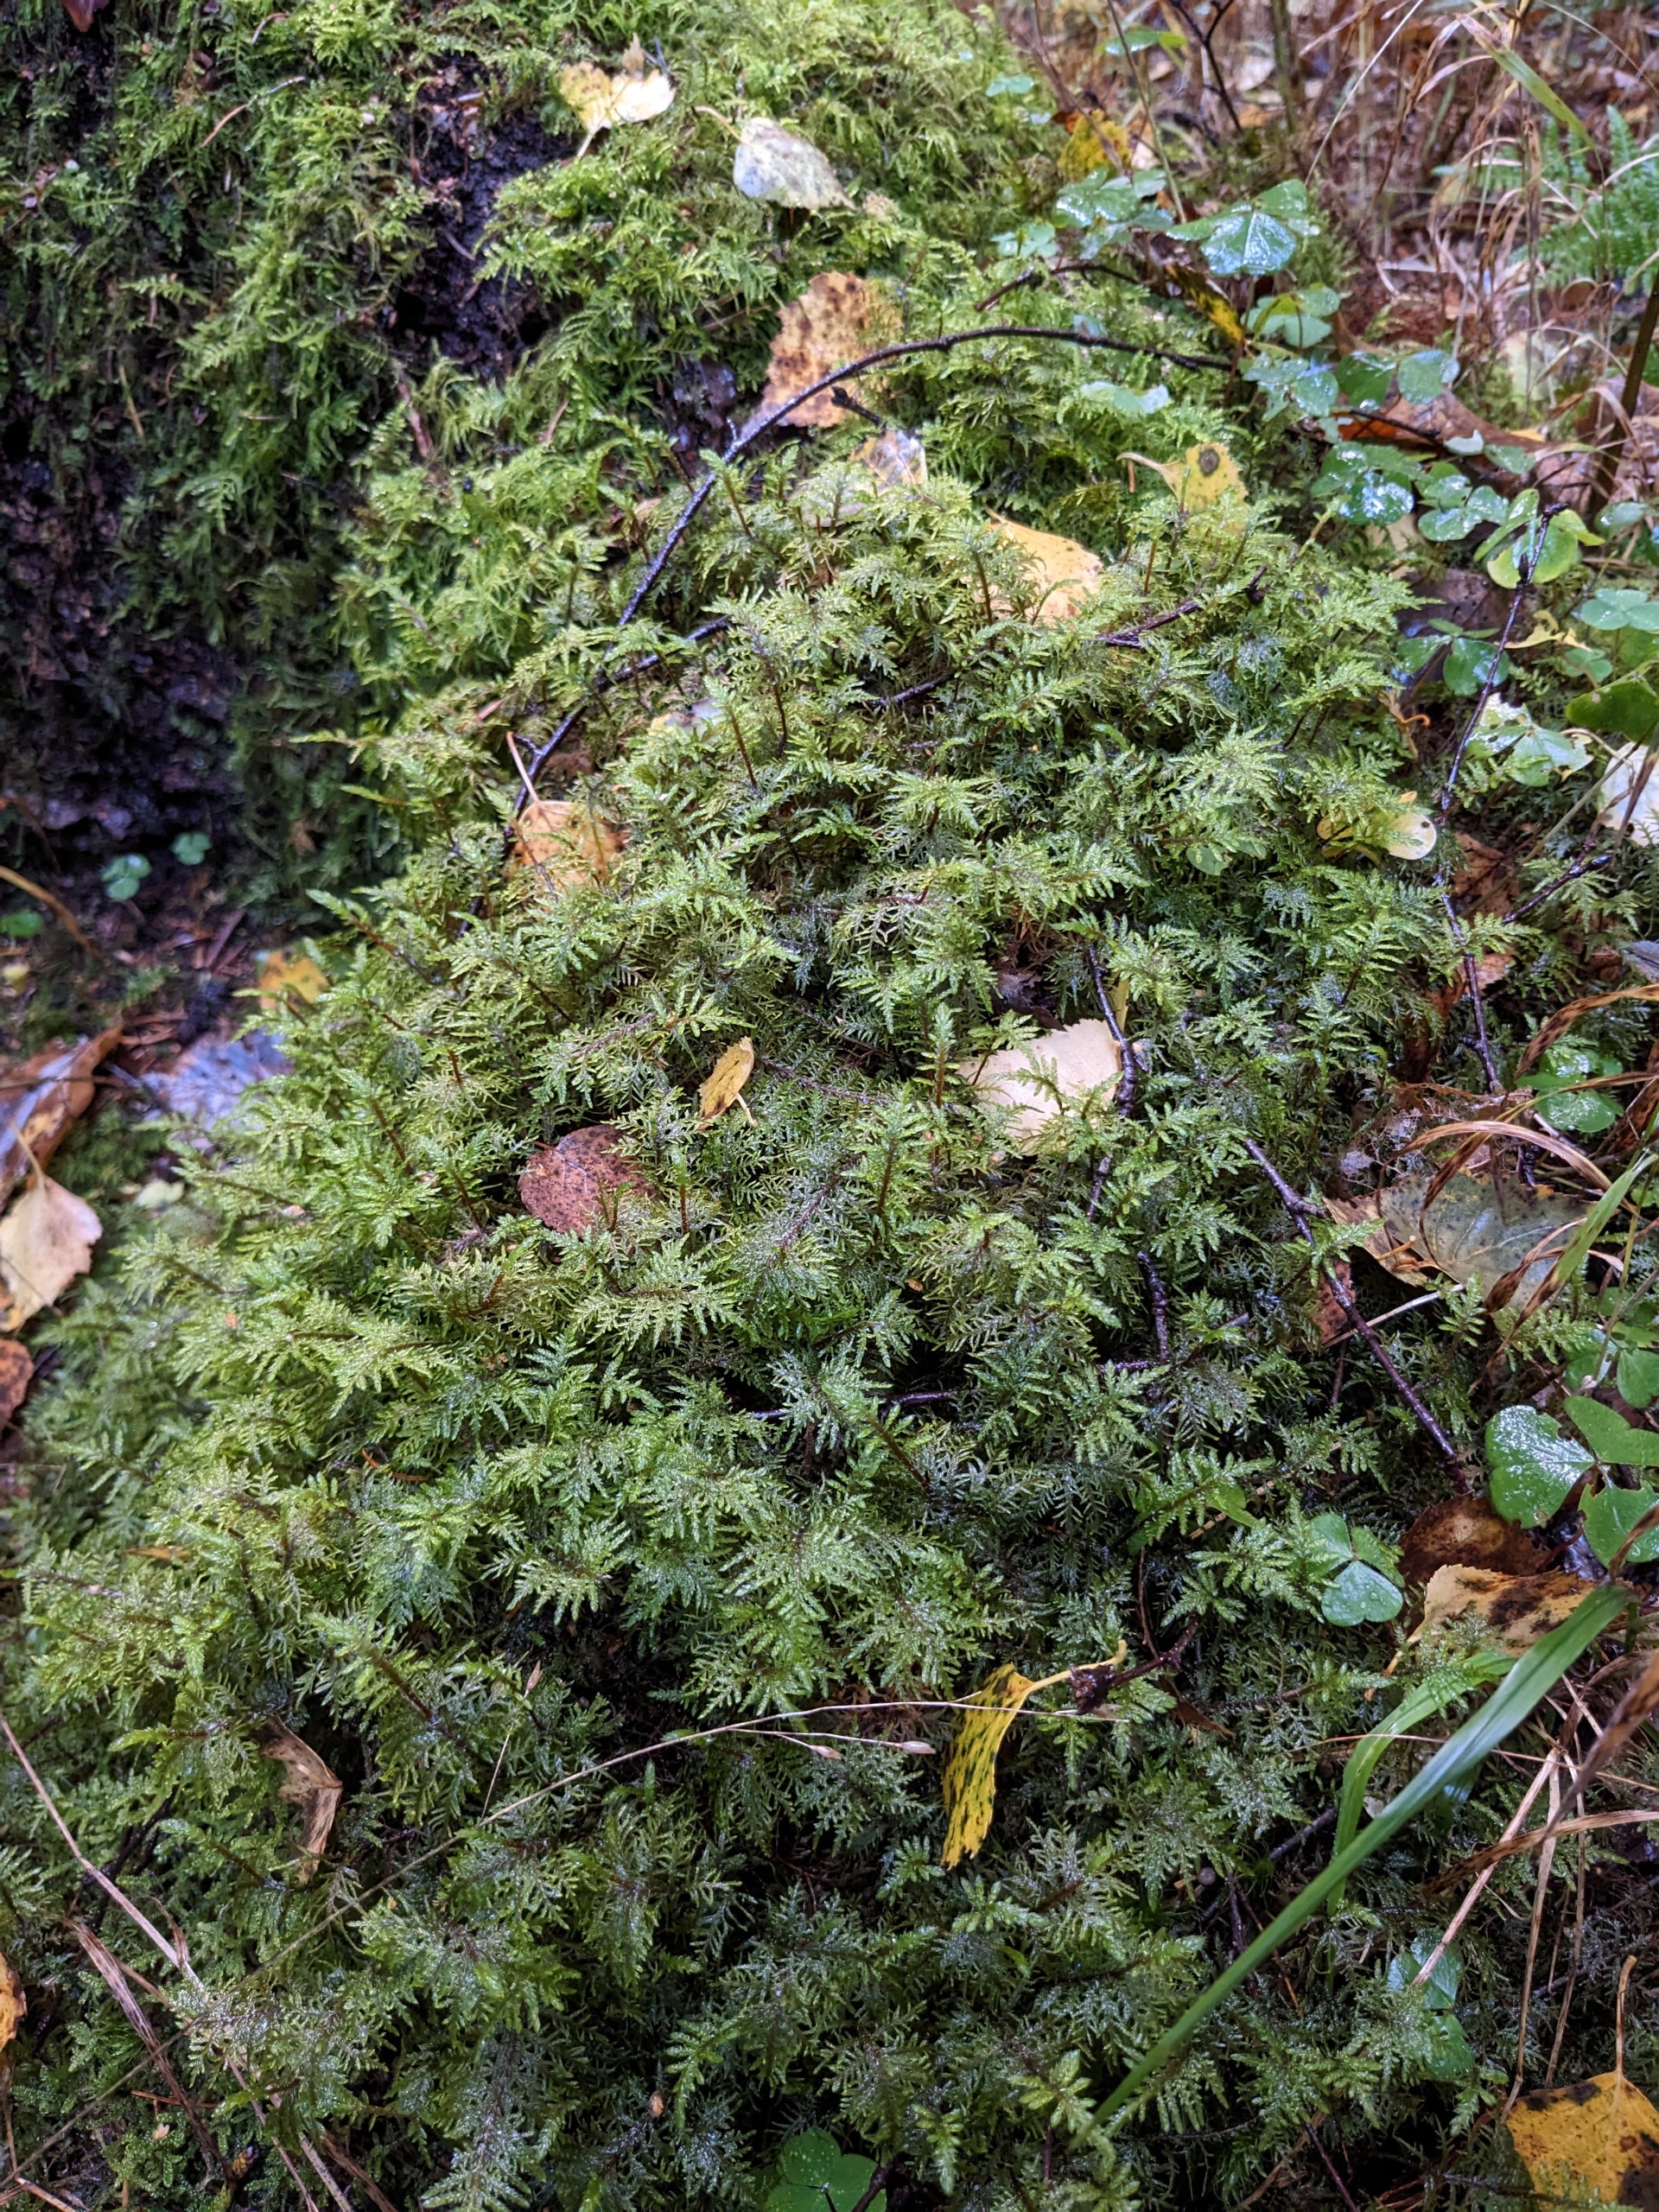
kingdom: Plantae
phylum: Bryophyta
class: Bryopsida
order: Hypnales
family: Hylocomiaceae
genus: Hylocomium
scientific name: Hylocomium splendens
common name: Almindelig etagemos
